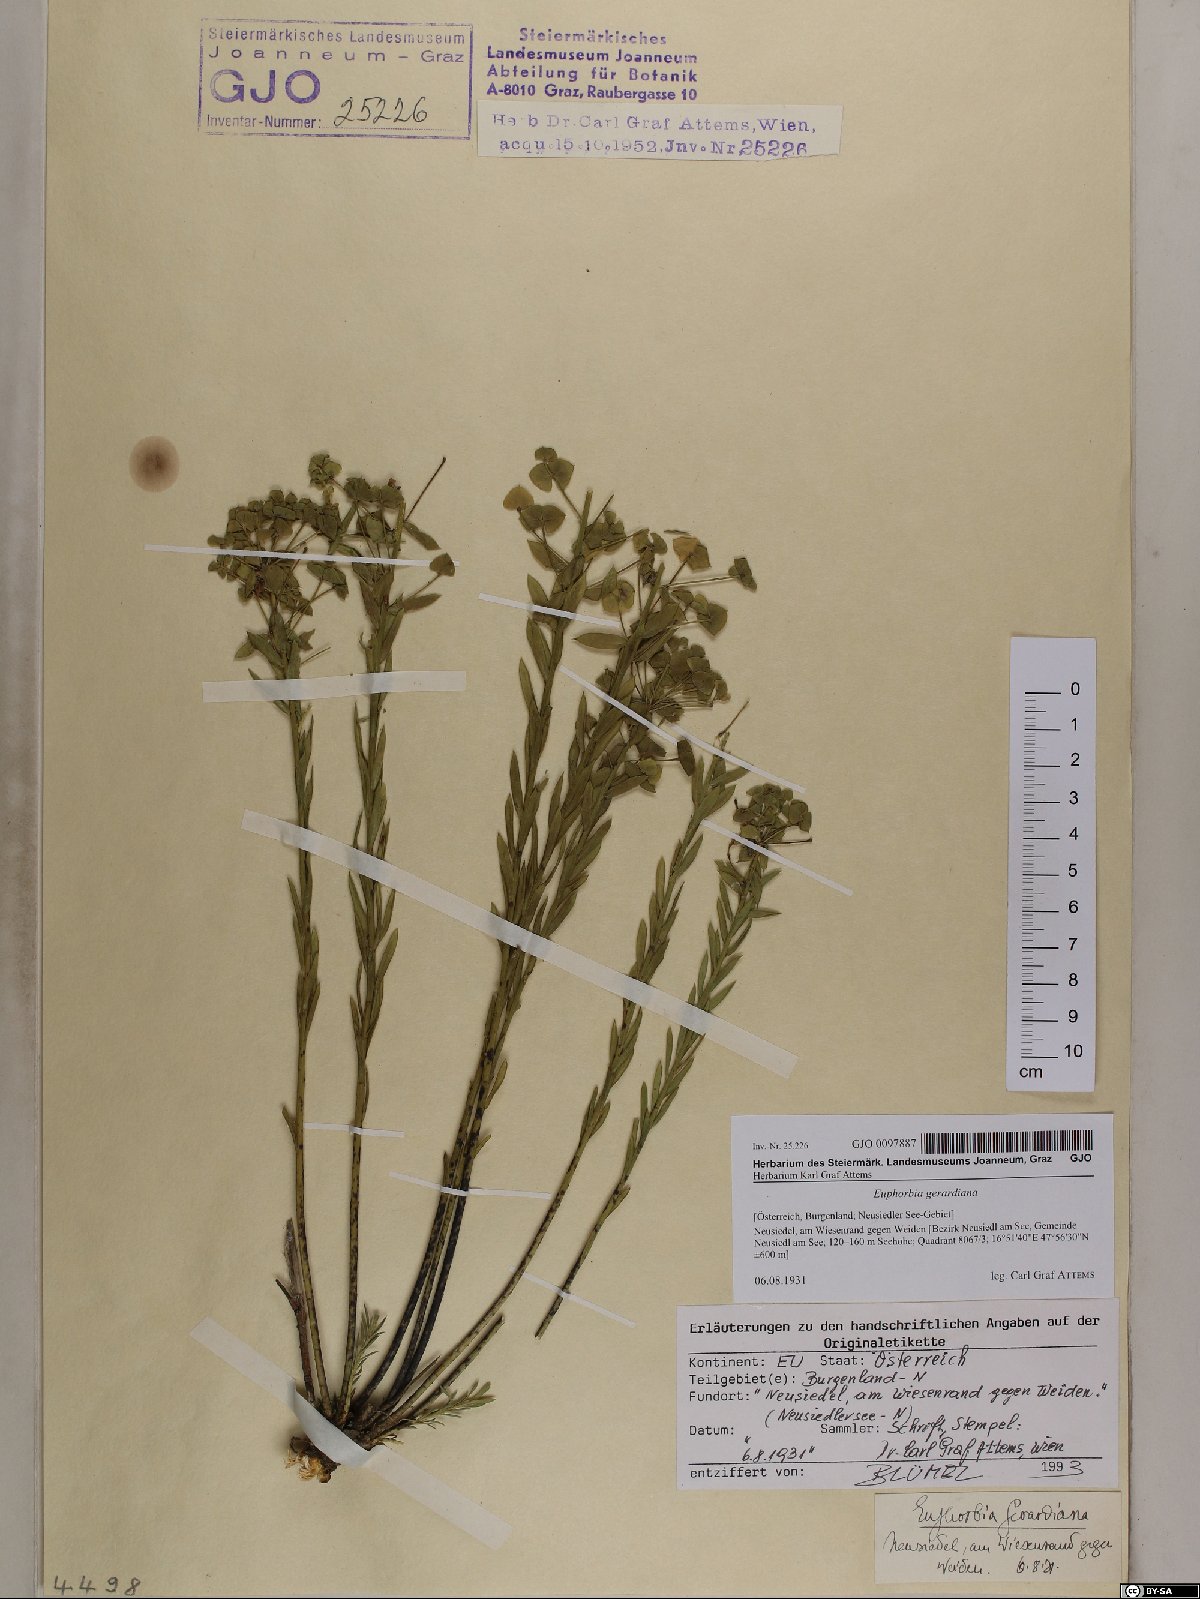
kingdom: Plantae
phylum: Tracheophyta
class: Magnoliopsida
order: Malpighiales
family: Euphorbiaceae
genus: Euphorbia
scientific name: Euphorbia seguieriana
